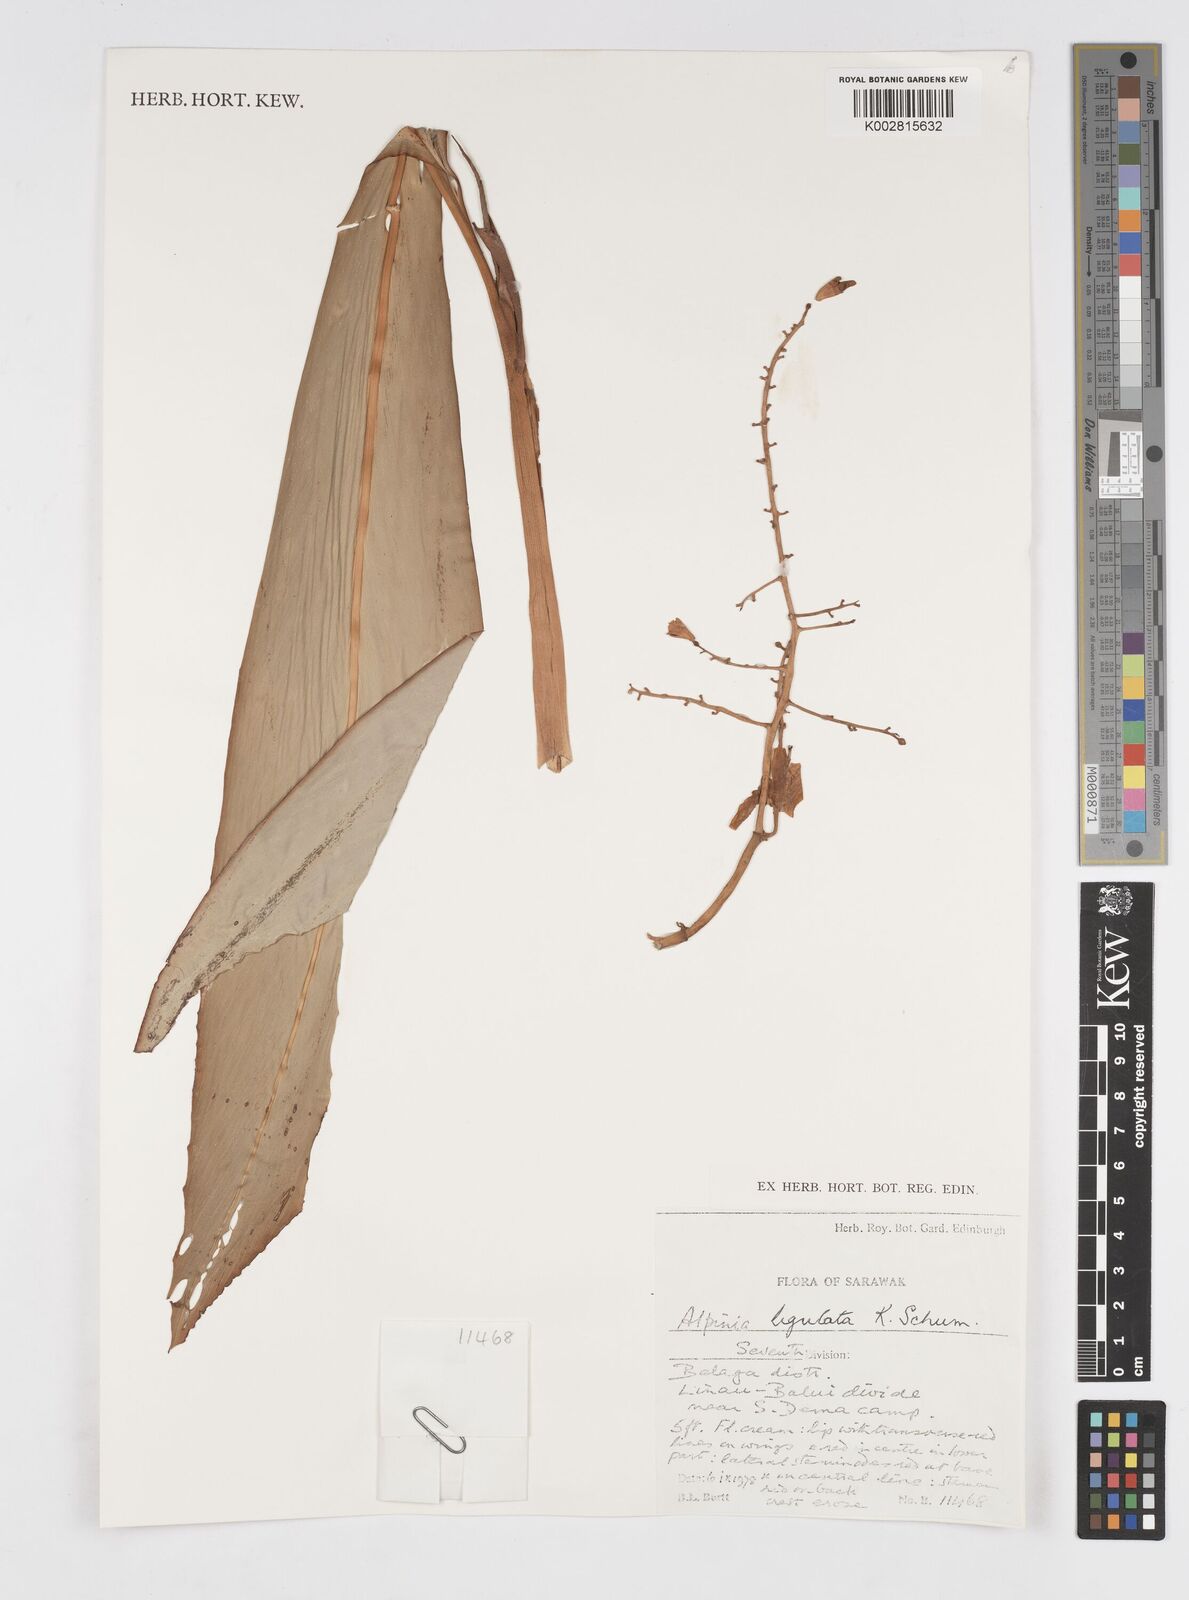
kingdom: Plantae
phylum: Tracheophyta
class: Liliopsida
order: Zingiberales
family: Zingiberaceae
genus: Alpinia
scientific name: Alpinia ligulata
